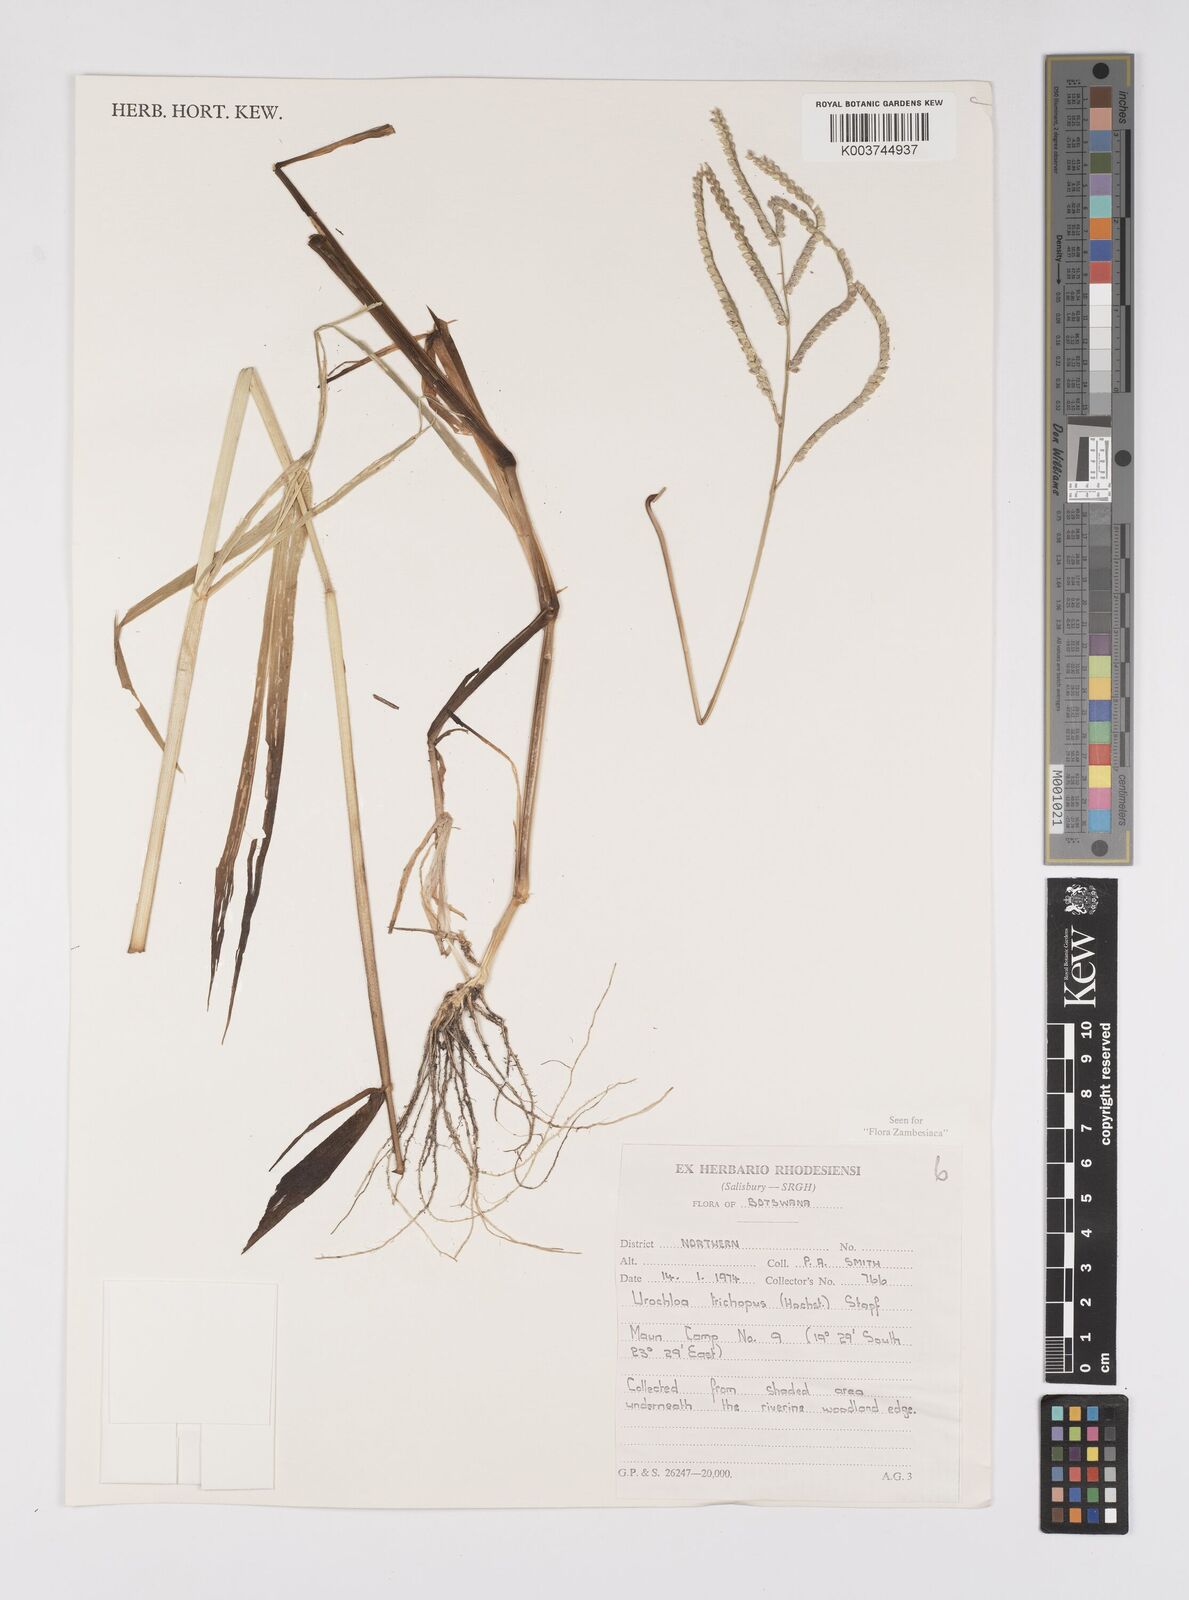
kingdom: Plantae
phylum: Tracheophyta
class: Liliopsida
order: Poales
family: Poaceae
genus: Urochloa
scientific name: Urochloa trichopus
